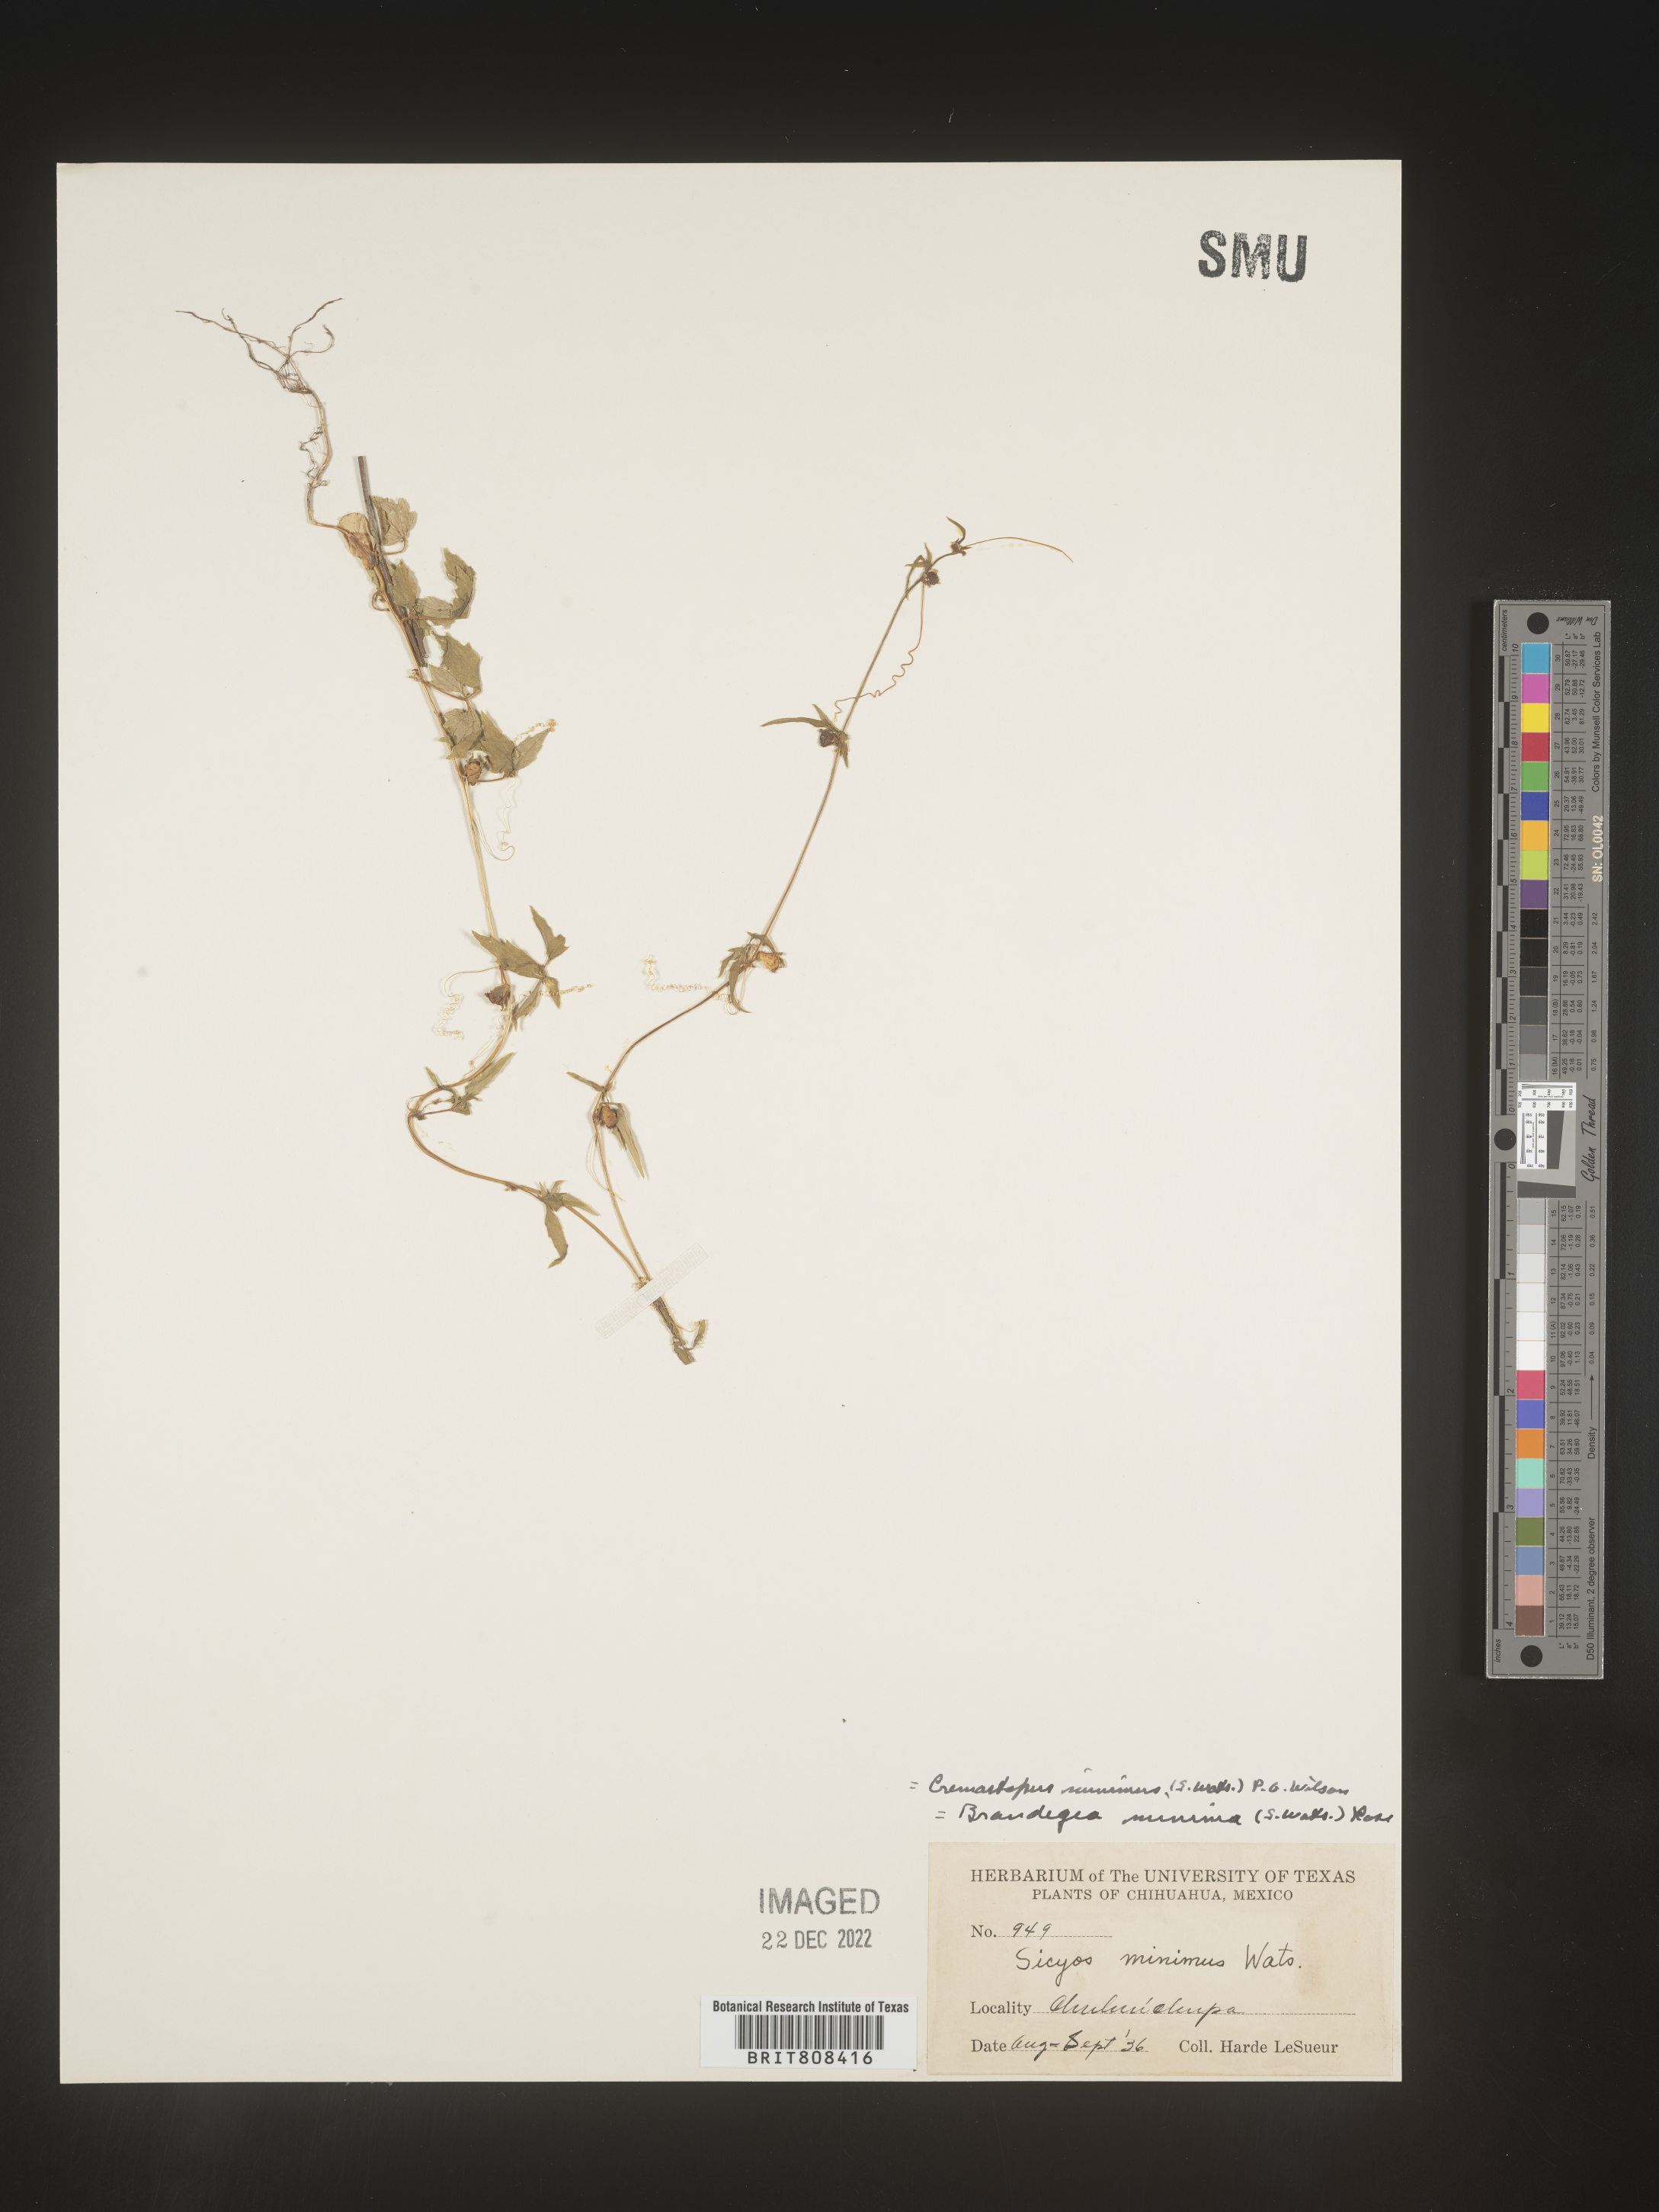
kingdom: Plantae
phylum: Tracheophyta
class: Magnoliopsida
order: Cucurbitales
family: Cucurbitaceae
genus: Cyclanthera
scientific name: Cyclanthera
